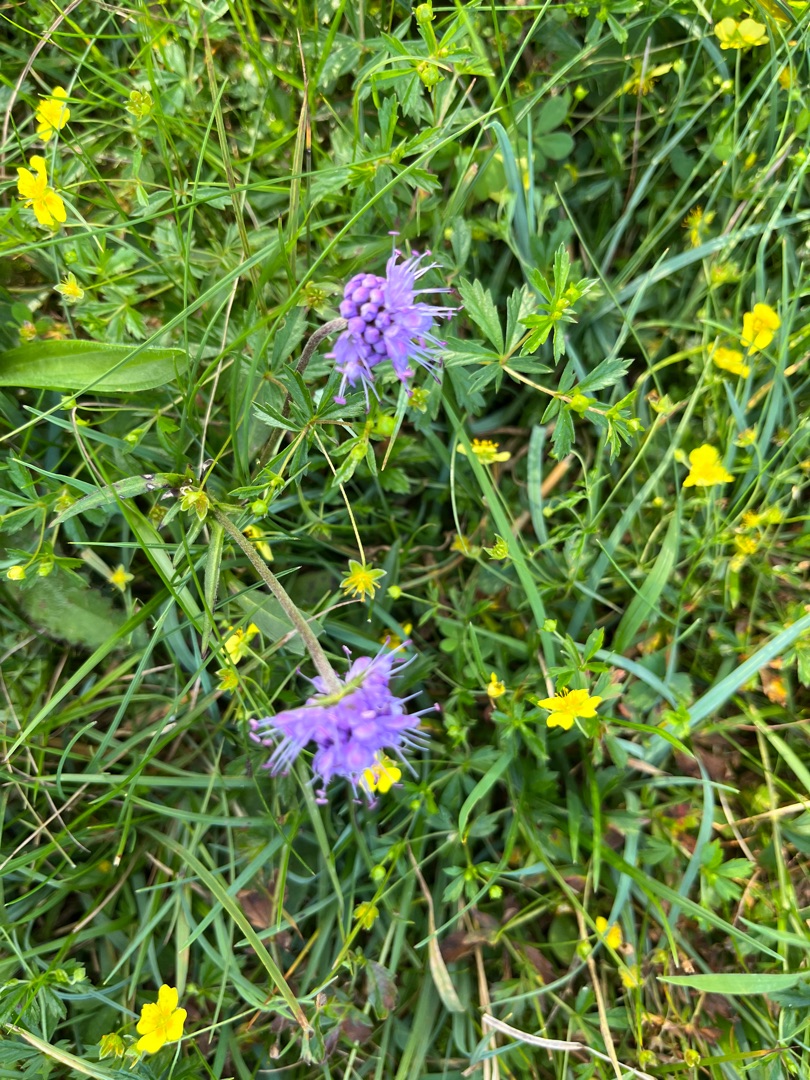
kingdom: Plantae
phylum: Tracheophyta
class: Magnoliopsida
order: Dipsacales
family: Caprifoliaceae
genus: Succisa
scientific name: Succisa pratensis
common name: Djævelsbid
